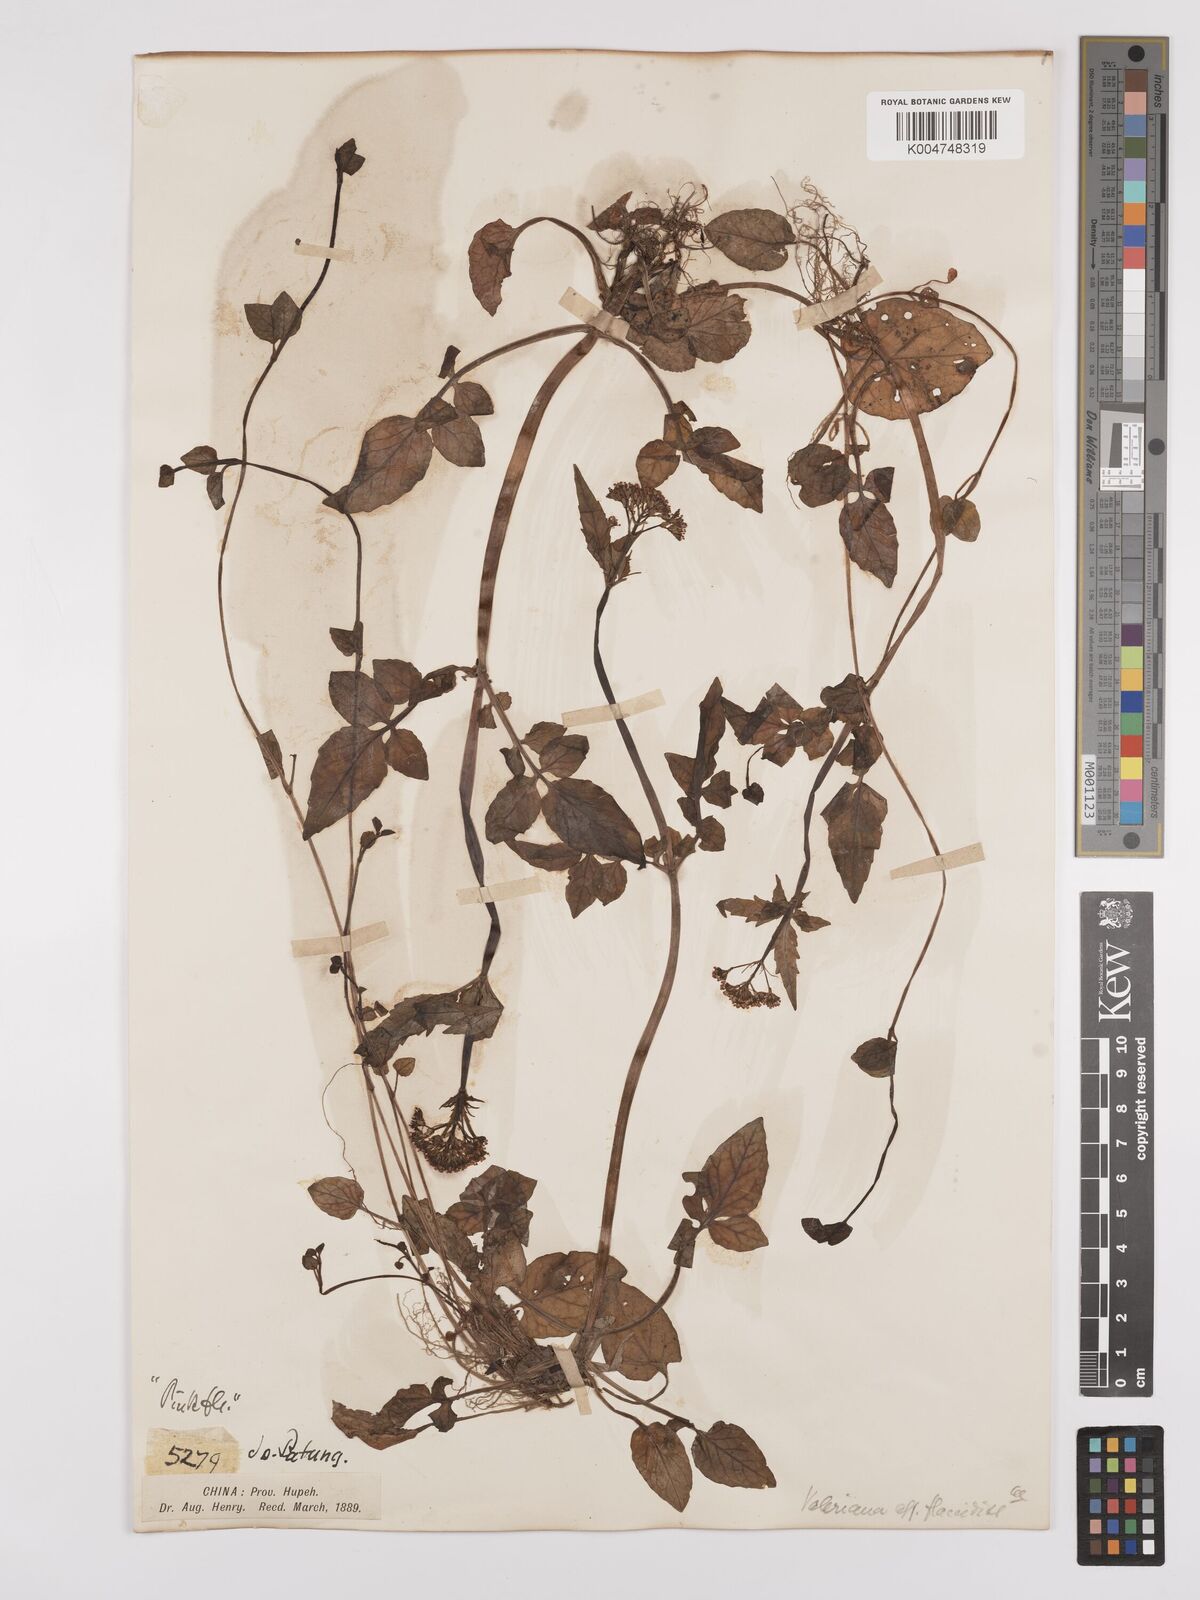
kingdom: Plantae
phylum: Tracheophyta
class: Magnoliopsida
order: Dipsacales
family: Caprifoliaceae
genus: Valeriana
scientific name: Valeriana flaccidissima
